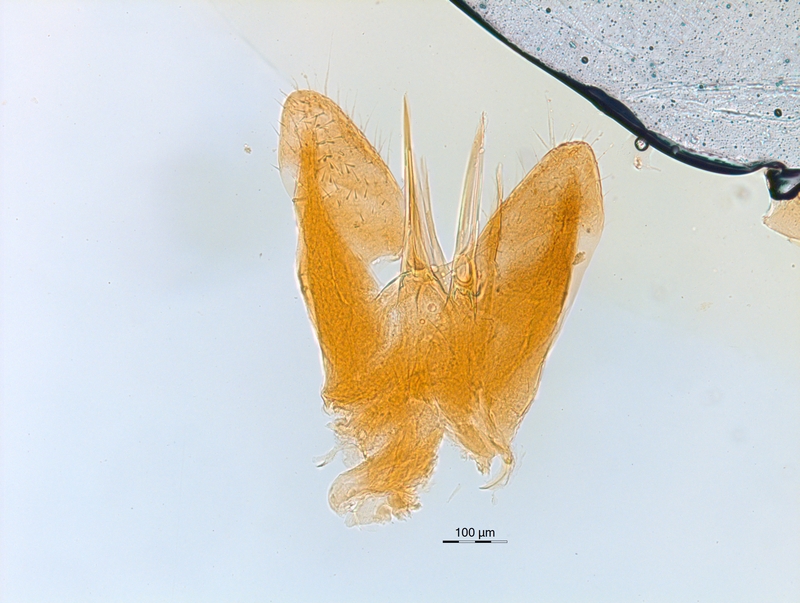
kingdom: Animalia
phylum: Arthropoda
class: Diplopoda
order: Chordeumatida
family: Chordeumatidae
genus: Melogona
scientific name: Melogona voigtii
